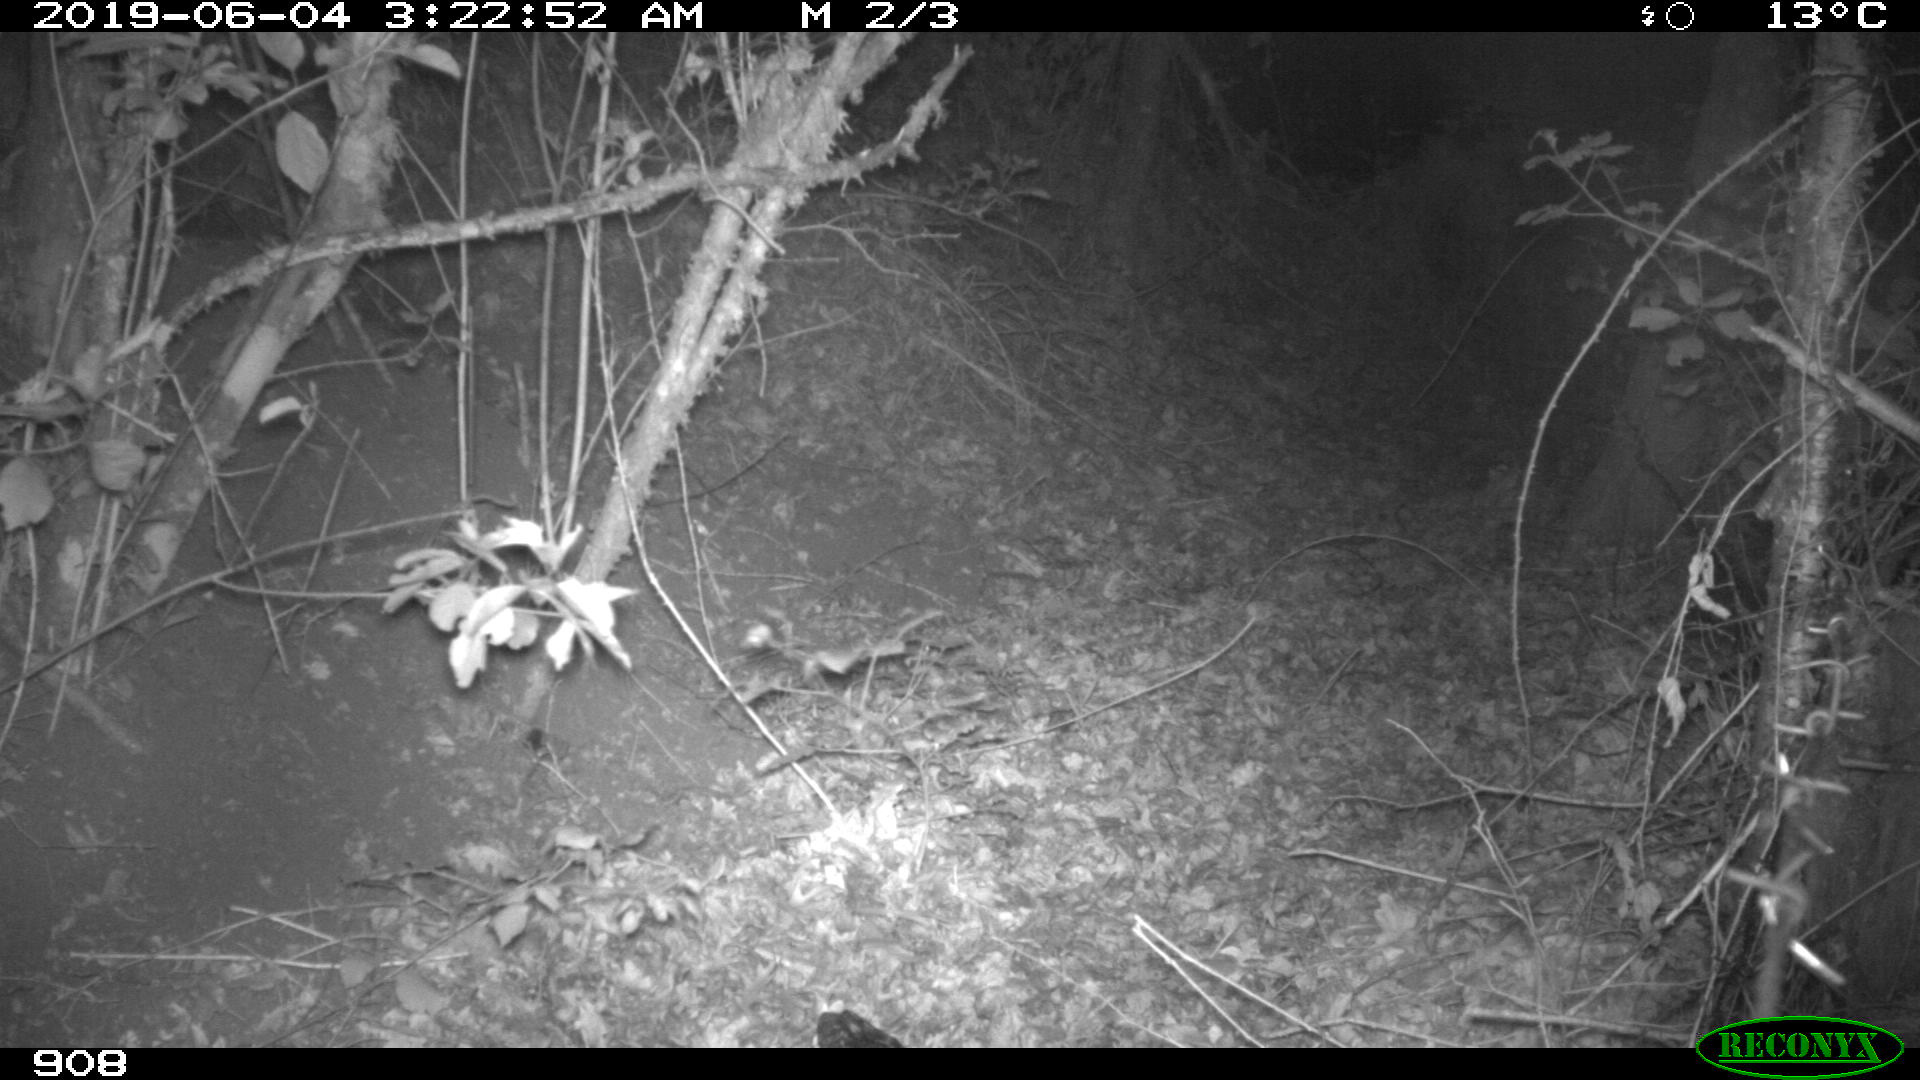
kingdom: Animalia
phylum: Chordata
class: Mammalia
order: Artiodactyla
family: Suidae
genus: Sus
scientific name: Sus scrofa
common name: Wild boar
